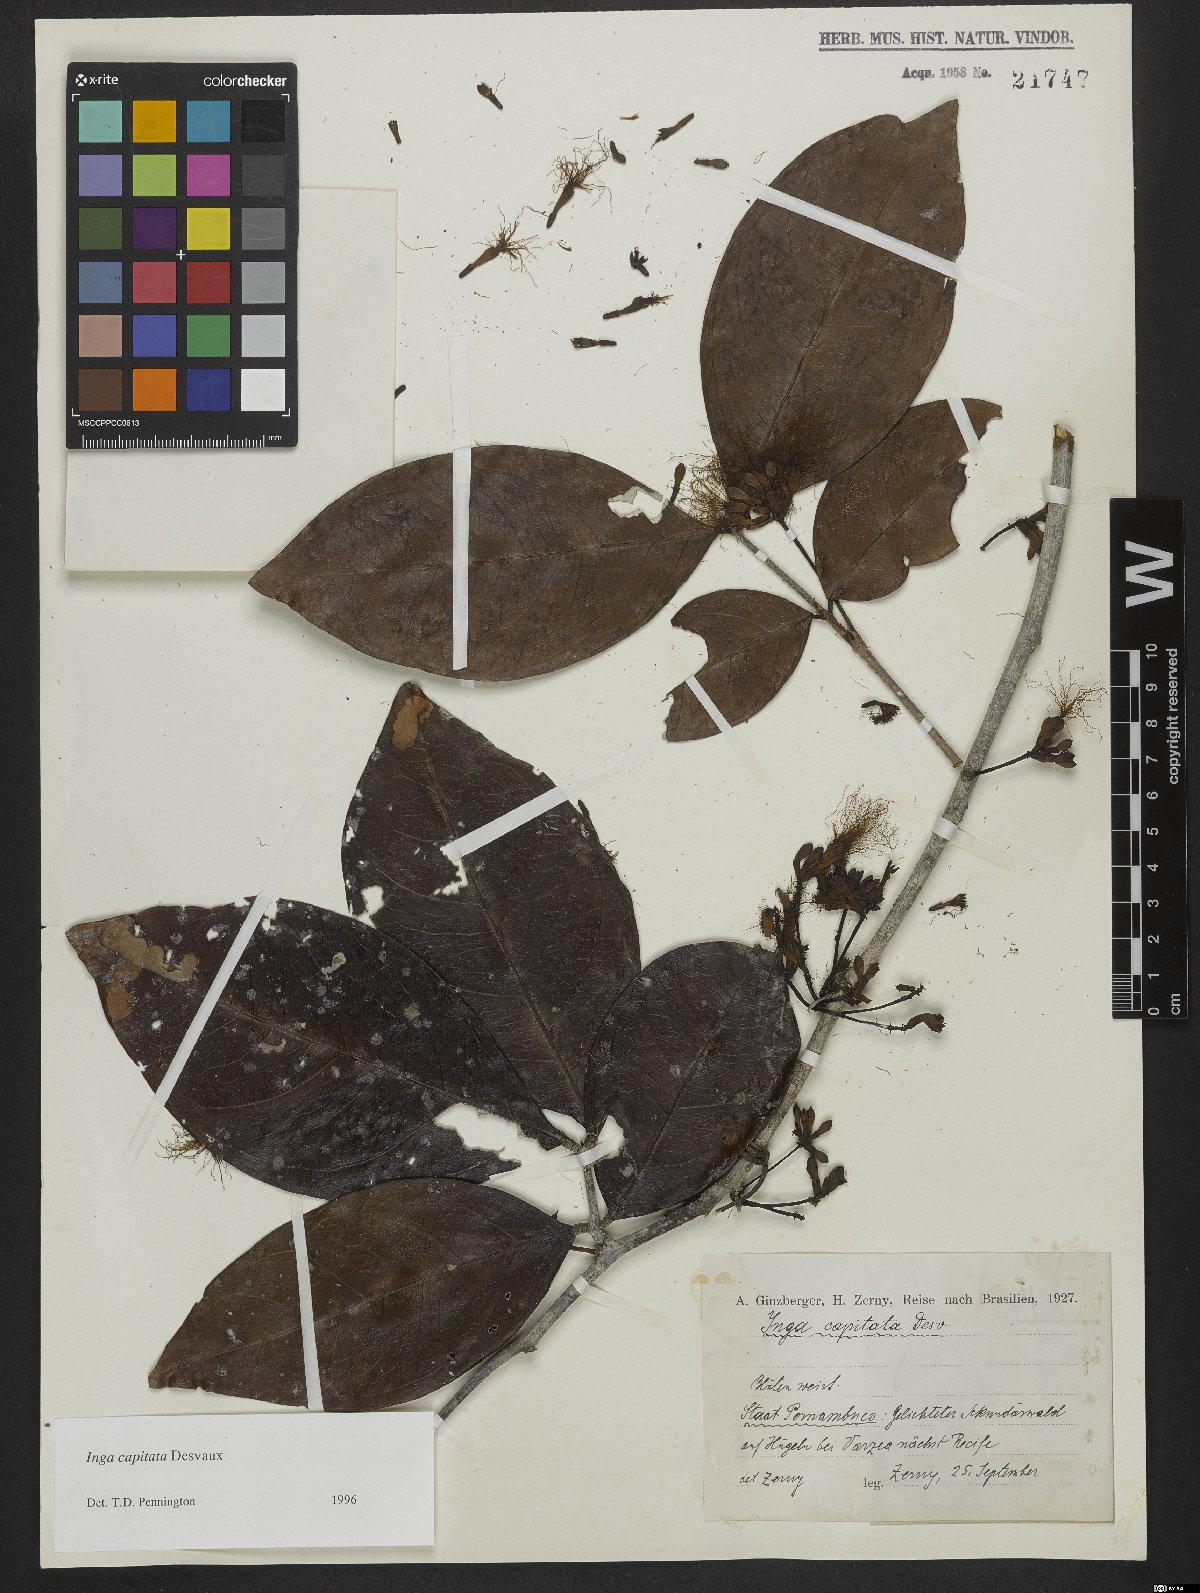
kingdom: Plantae
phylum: Tracheophyta
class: Magnoliopsida
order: Fabales
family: Fabaceae
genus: Inga
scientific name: Inga capitata
